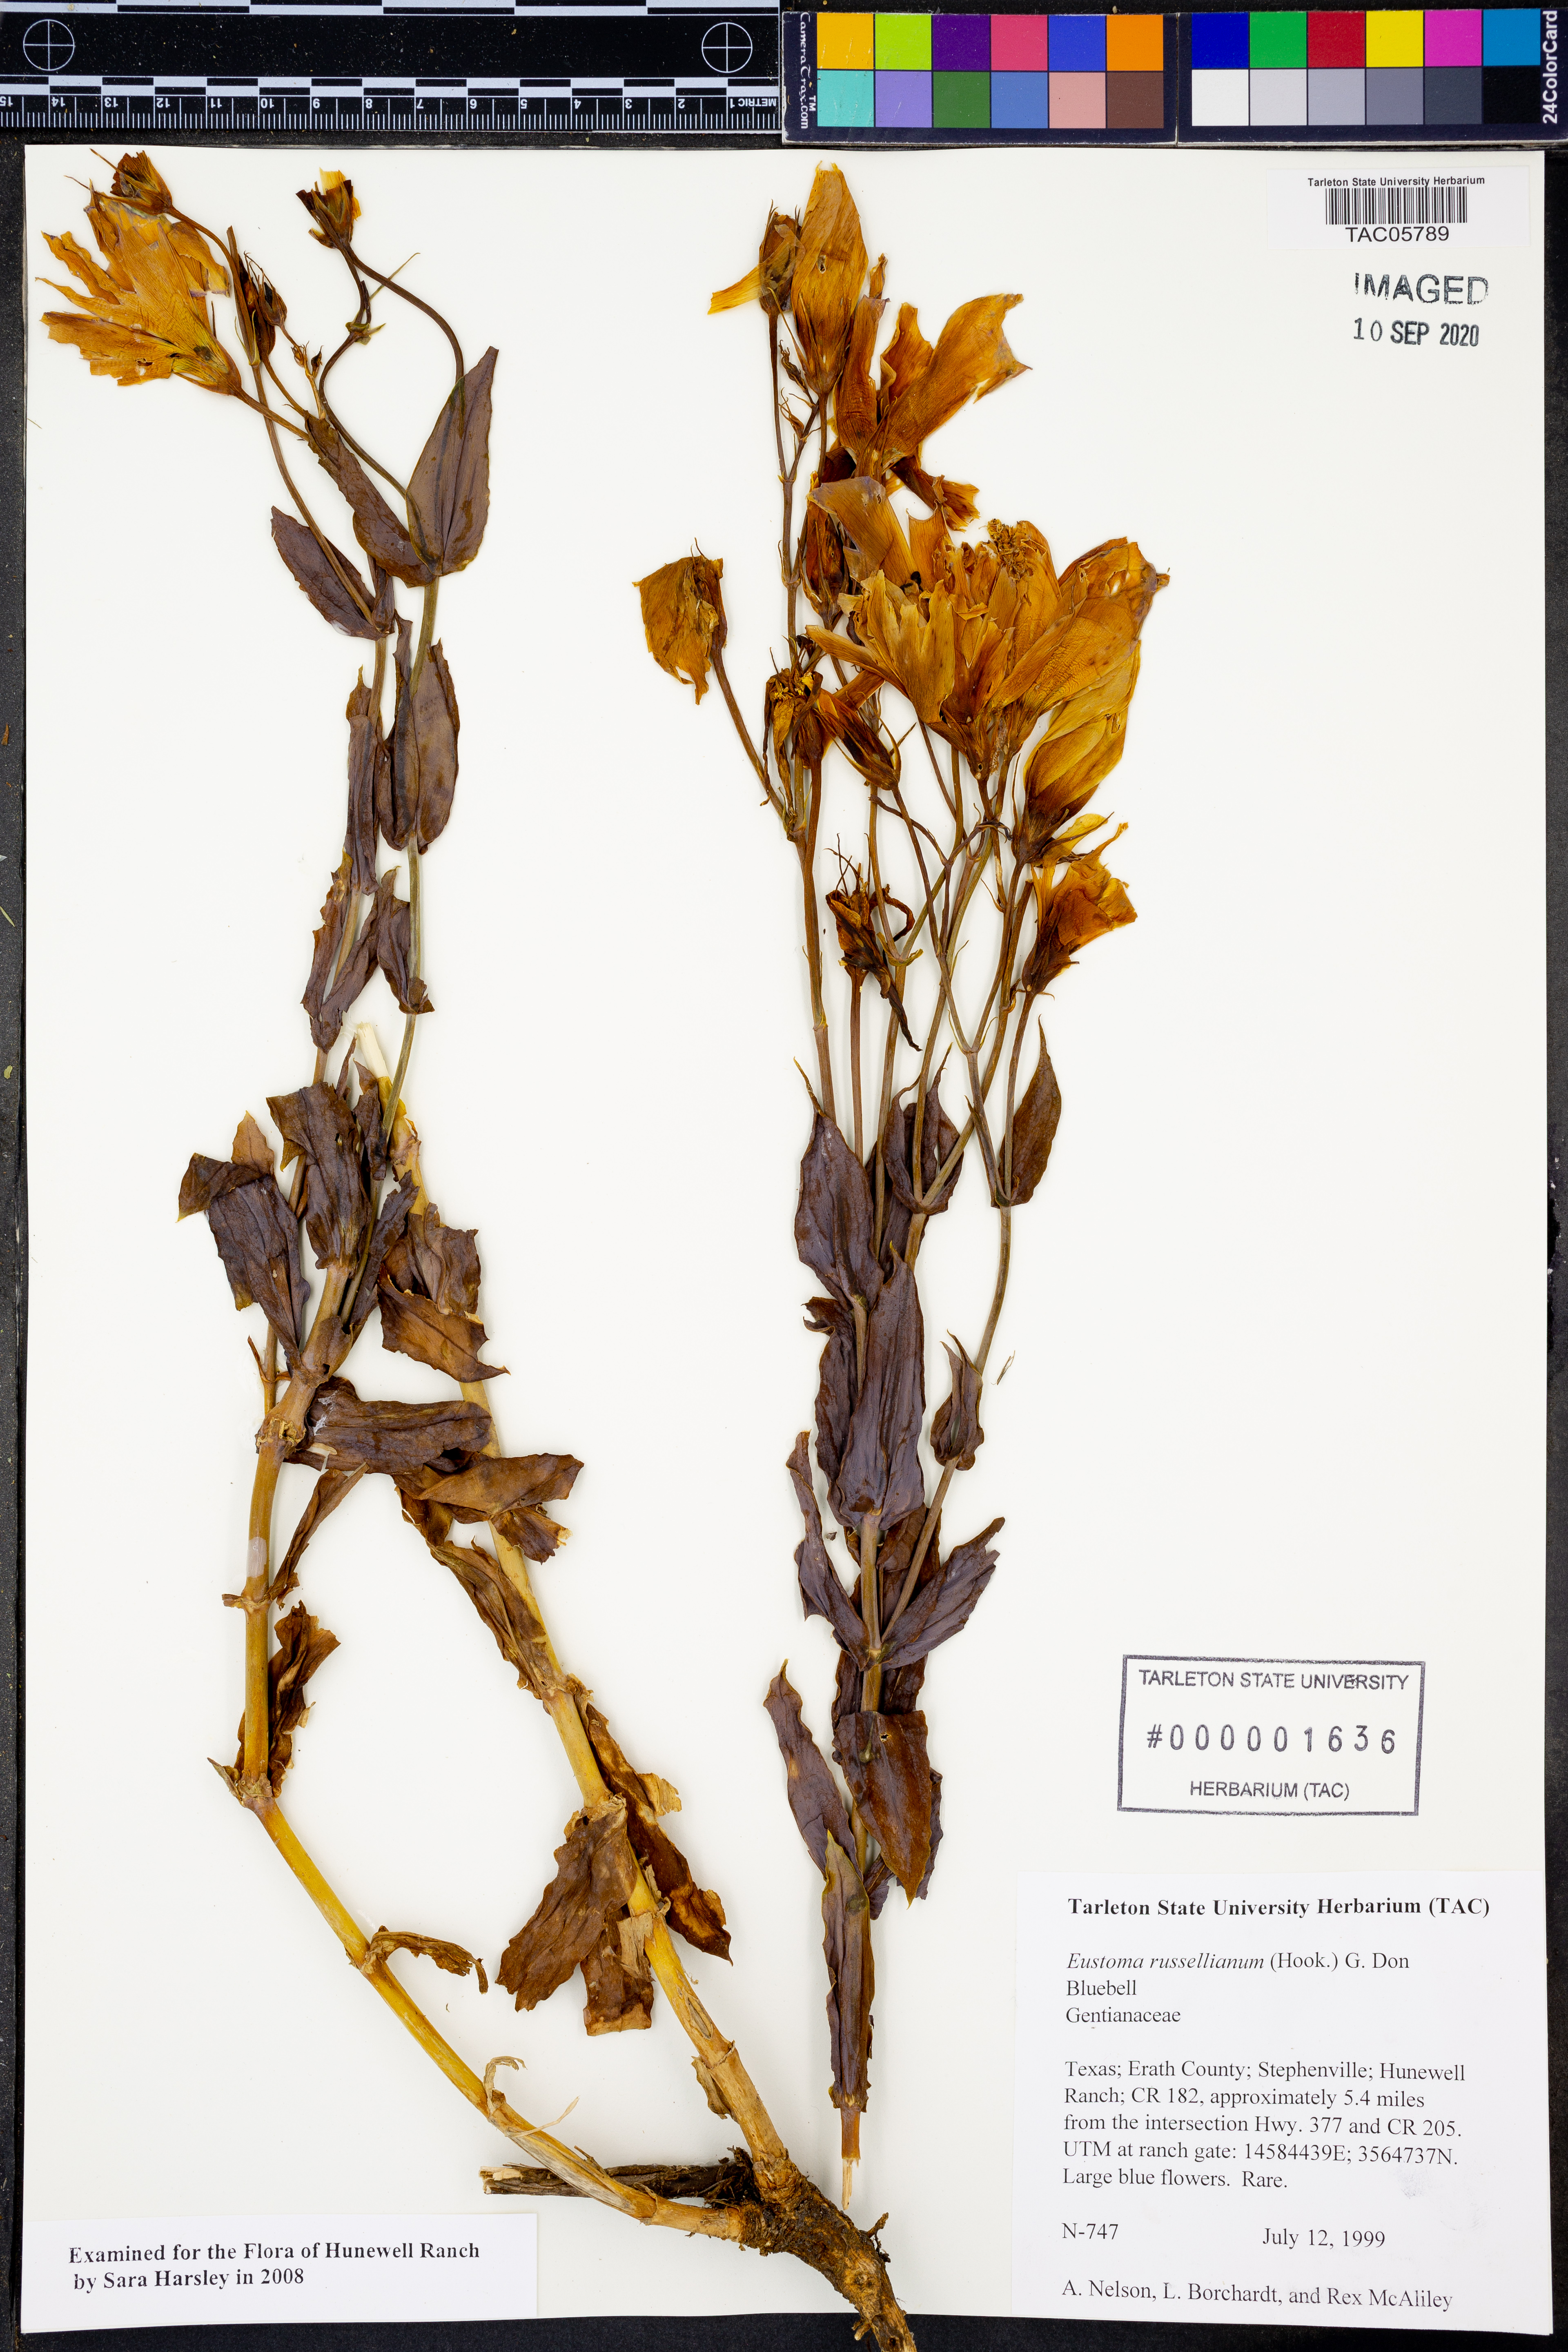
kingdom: Plantae
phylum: Tracheophyta
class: Magnoliopsida
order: Gentianales
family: Gentianaceae
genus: Eustoma
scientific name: Eustoma russellianum
